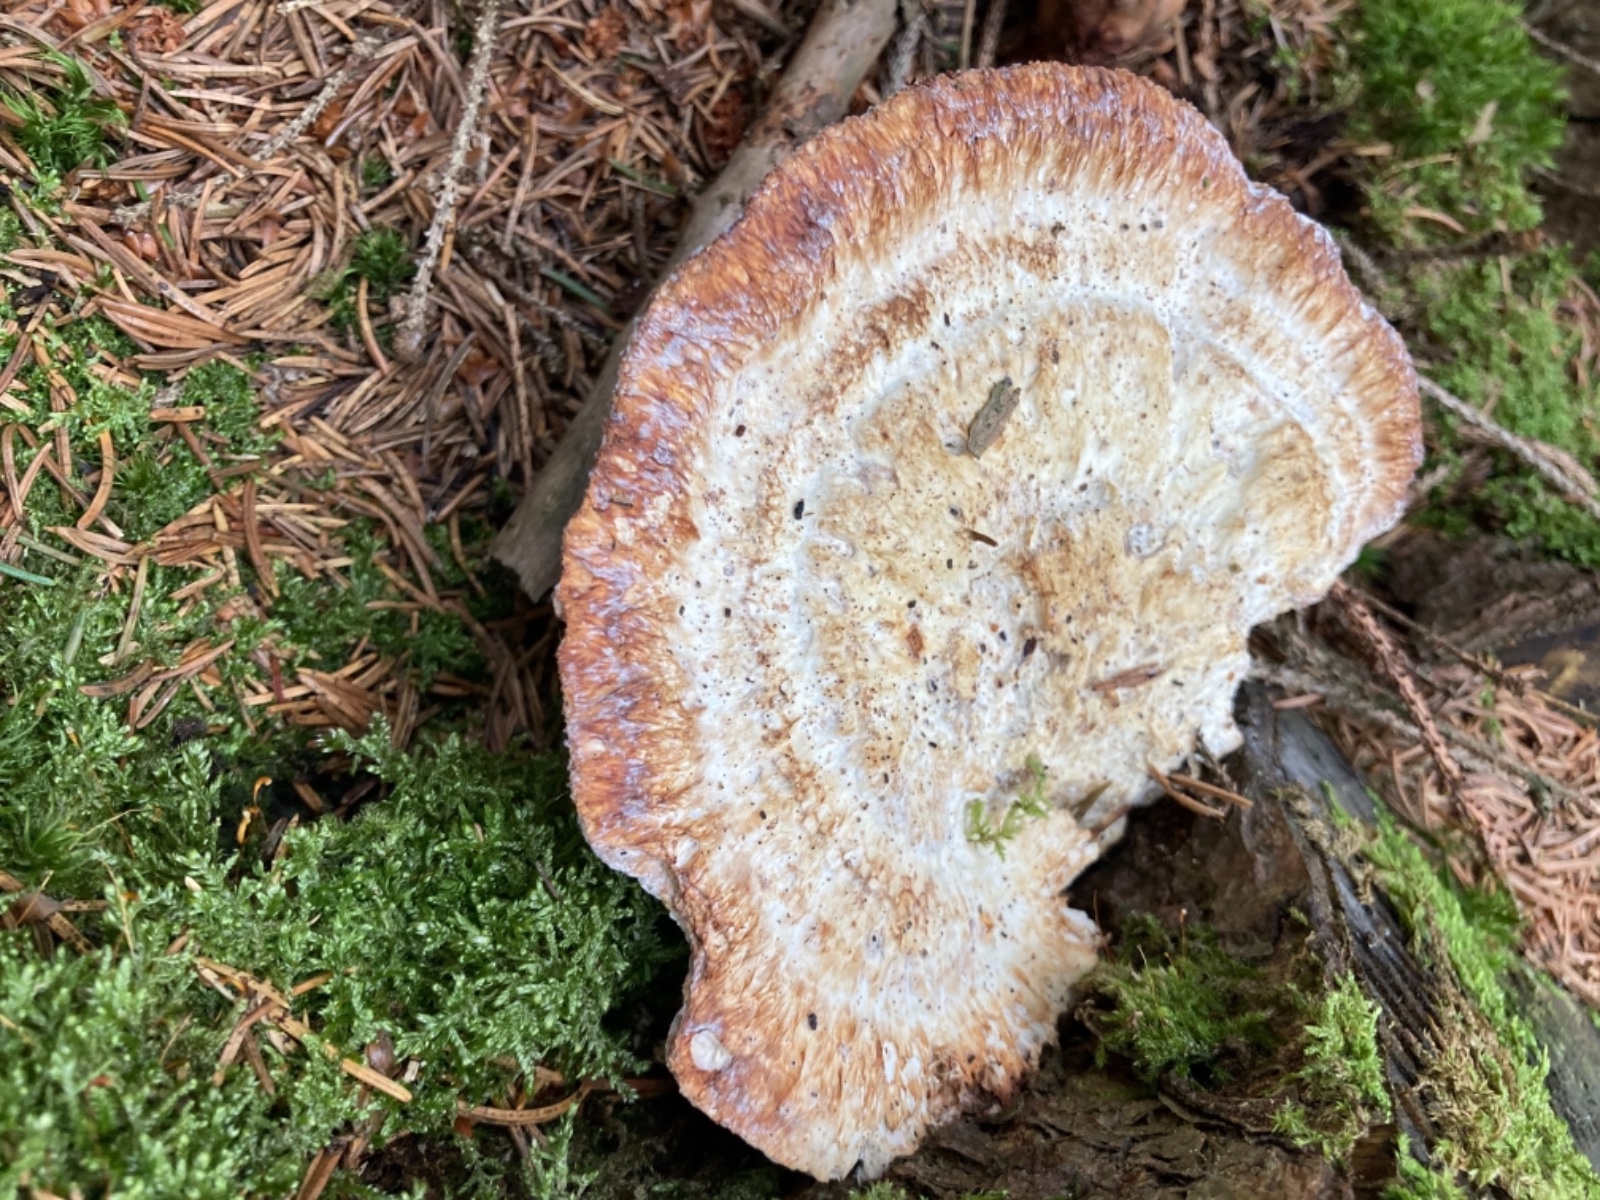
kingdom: Fungi
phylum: Basidiomycota
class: Agaricomycetes
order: Polyporales
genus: Calcipostia
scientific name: Calcipostia guttulata
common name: dråbe-kødporesvamp
